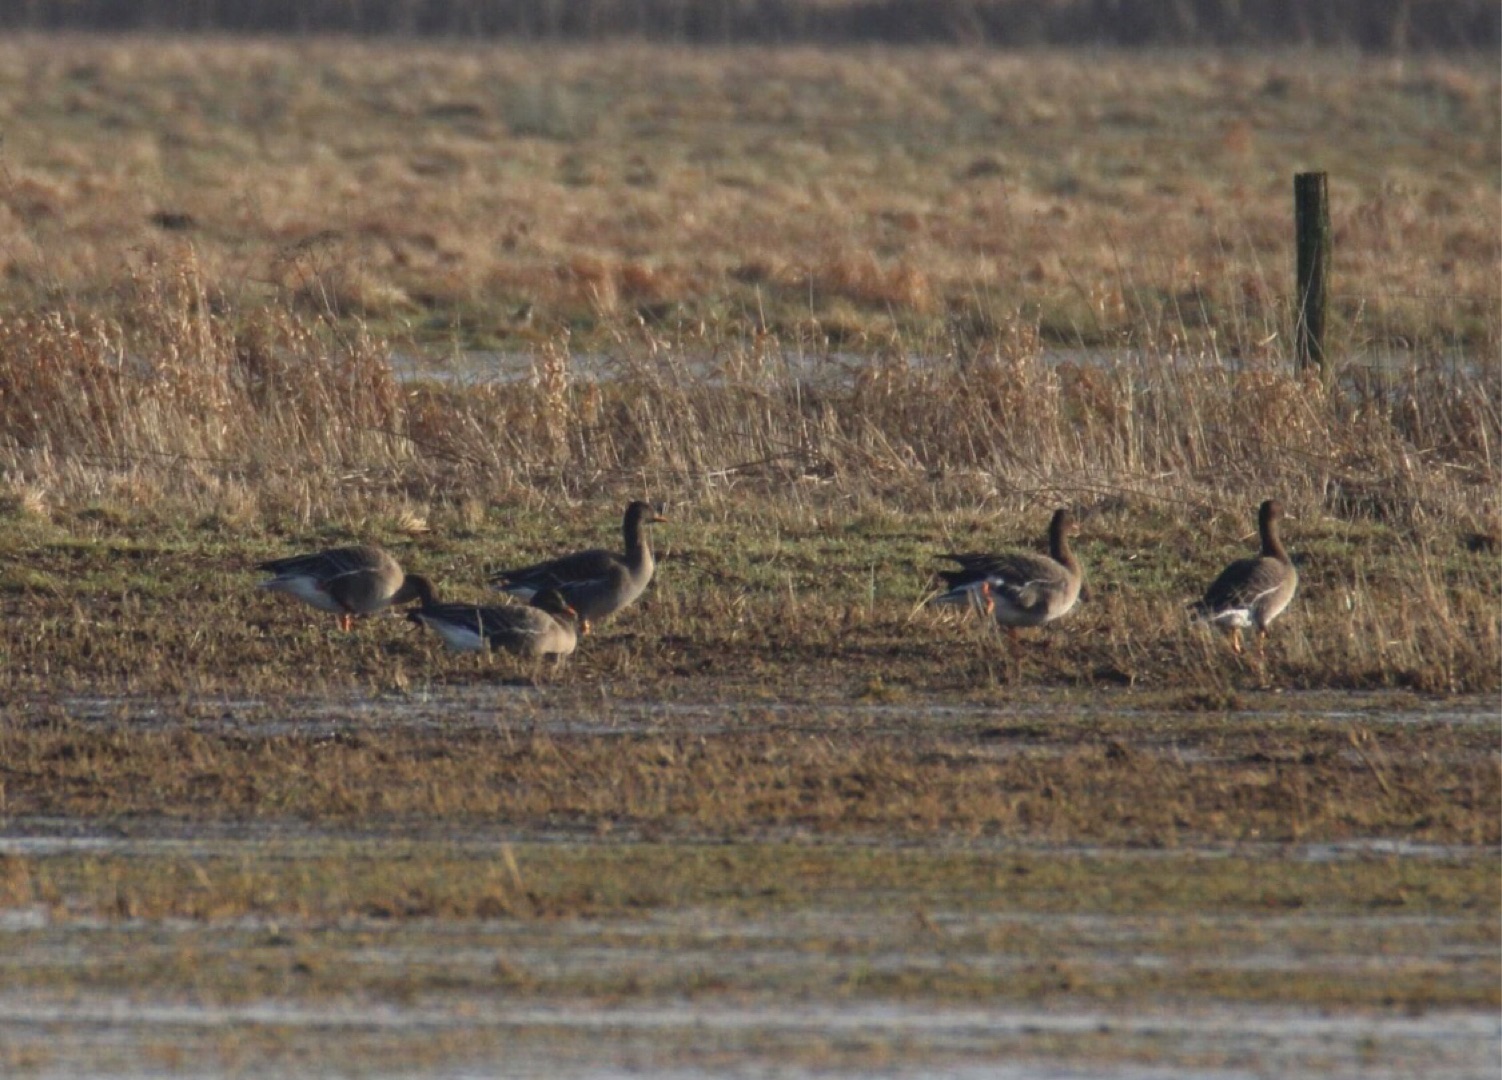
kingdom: Animalia
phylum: Chordata
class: Aves
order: Anseriformes
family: Anatidae
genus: Anser
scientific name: Anser fabalis
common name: Tajgasædgås
